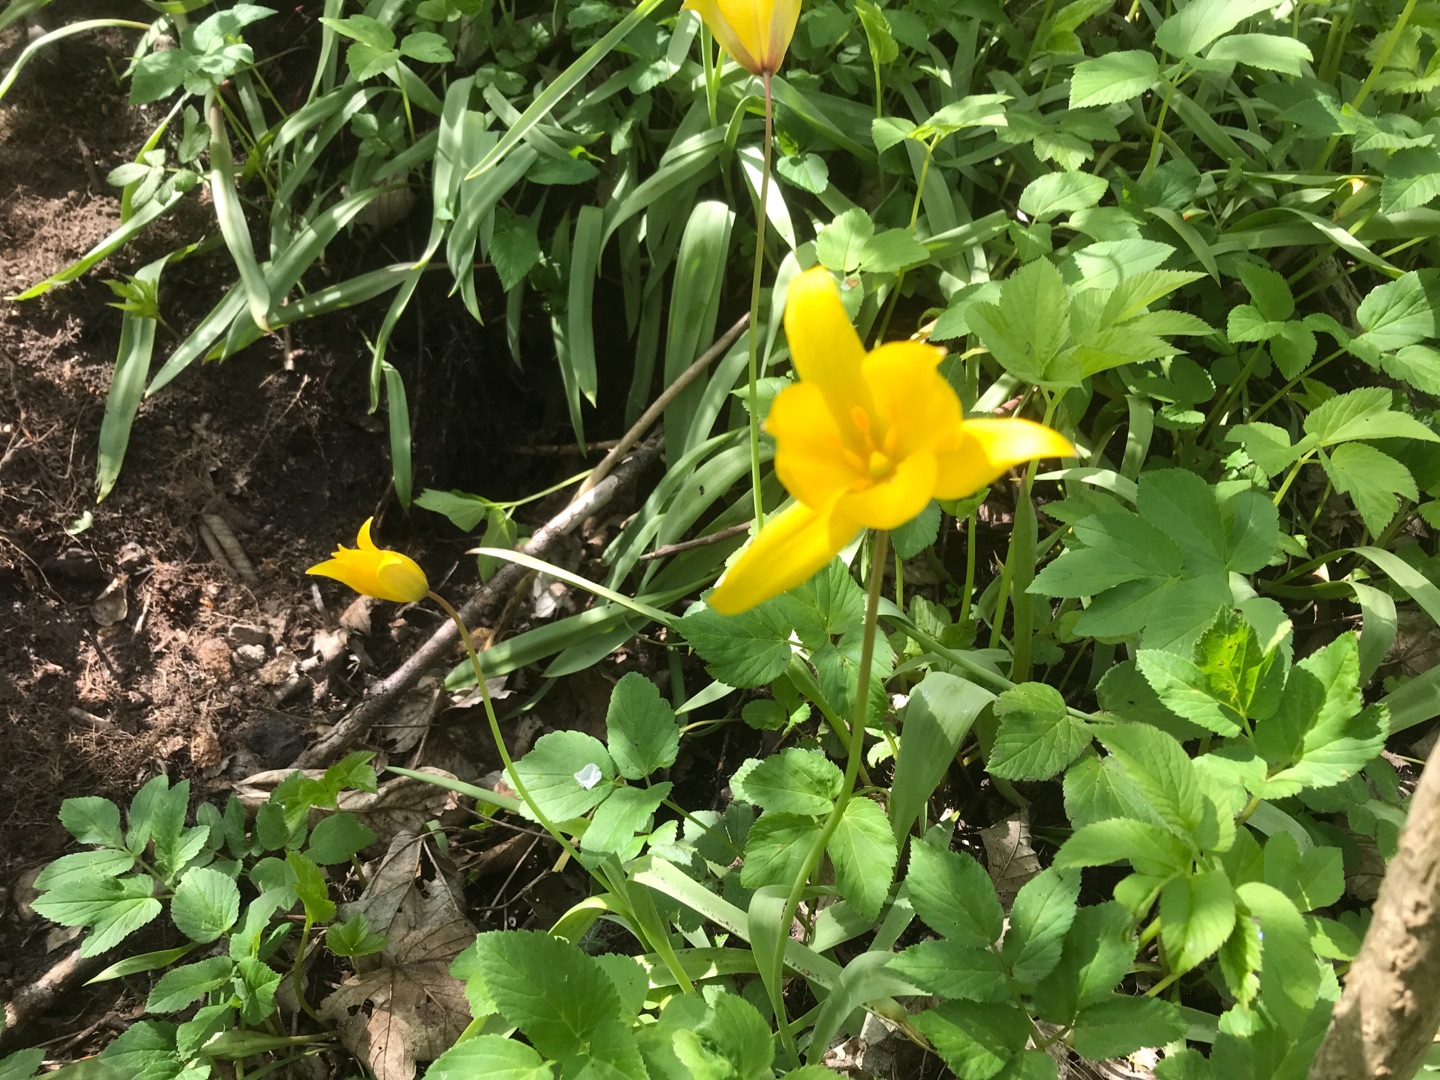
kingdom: Plantae
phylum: Tracheophyta
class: Liliopsida
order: Liliales
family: Liliaceae
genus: Tulipa
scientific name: Tulipa sylvestris
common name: Vild tulipan
